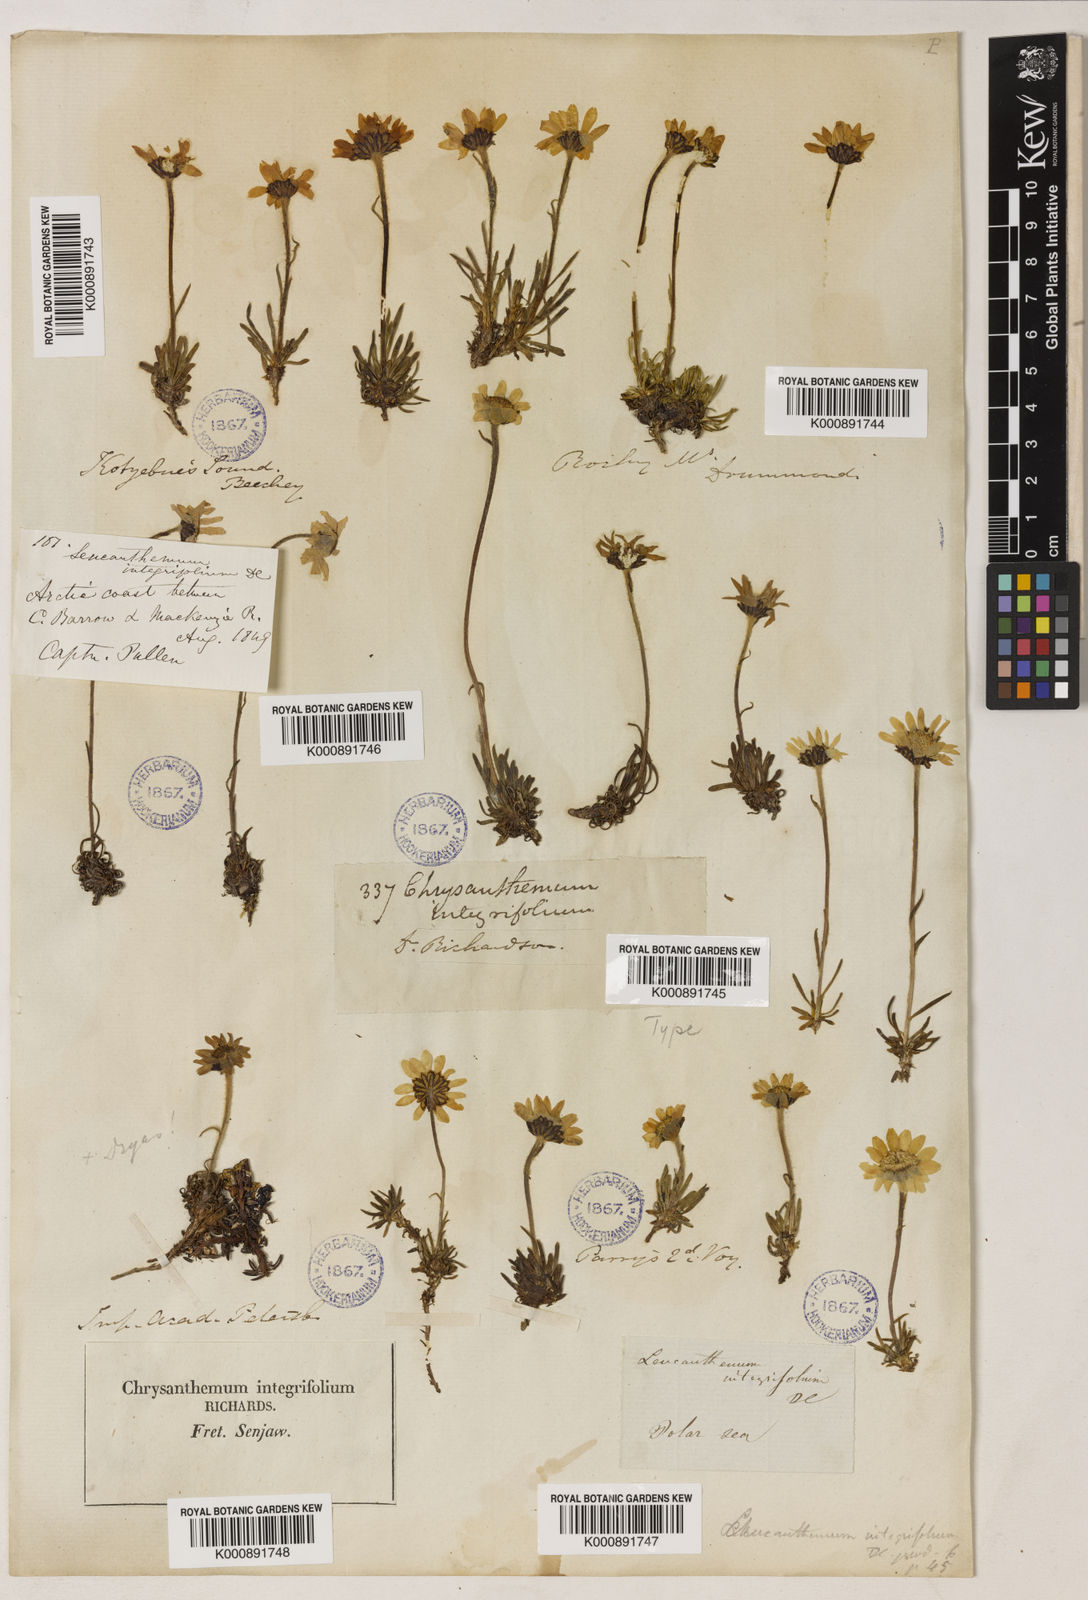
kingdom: Plantae
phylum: Tracheophyta
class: Magnoliopsida
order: Asterales
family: Asteraceae
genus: Arctanthemum
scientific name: Arctanthemum integrifolium
